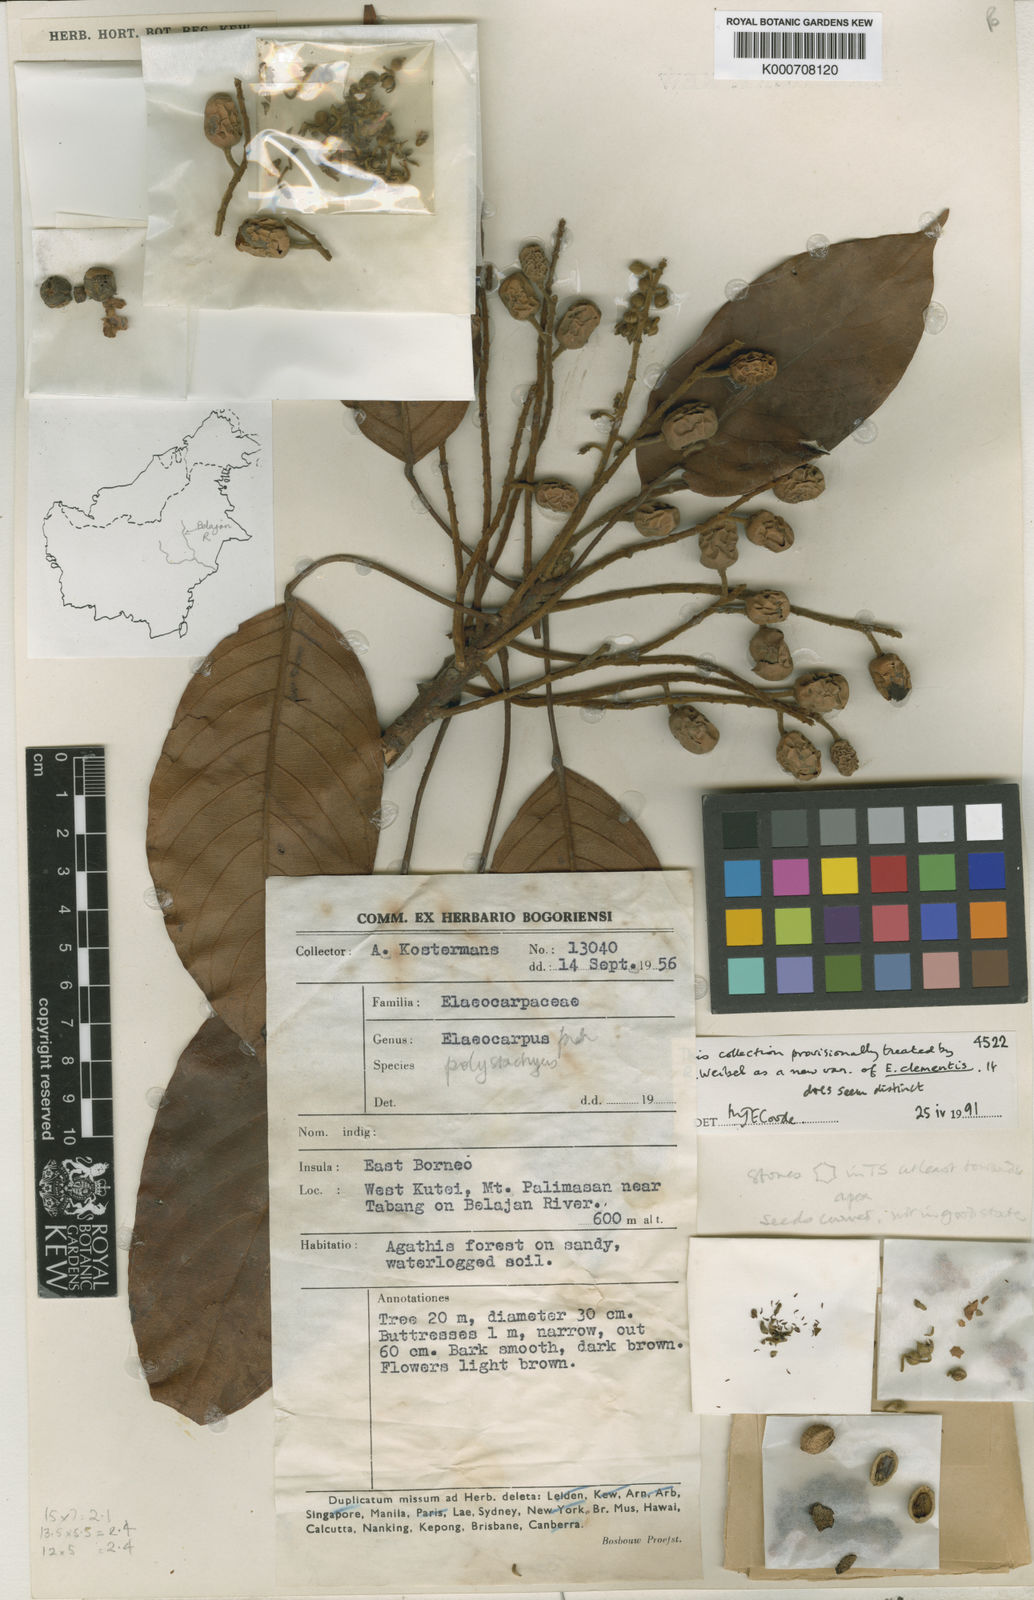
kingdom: Plantae
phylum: Tracheophyta
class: Magnoliopsida
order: Oxalidales
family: Elaeocarpaceae
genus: Elaeocarpus
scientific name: Elaeocarpus clementis
